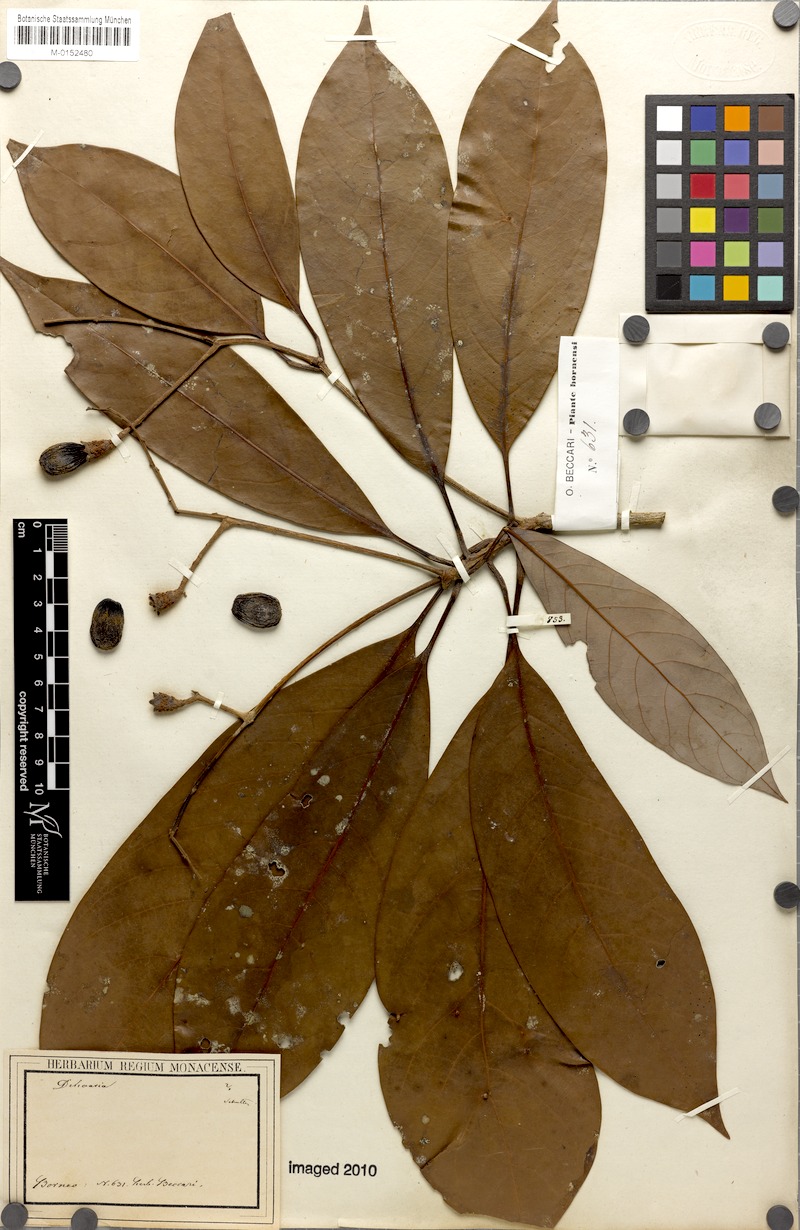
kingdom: Plantae
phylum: Tracheophyta
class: Magnoliopsida
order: Laurales
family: Lauraceae
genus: Dehaasia
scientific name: Dehaasia
